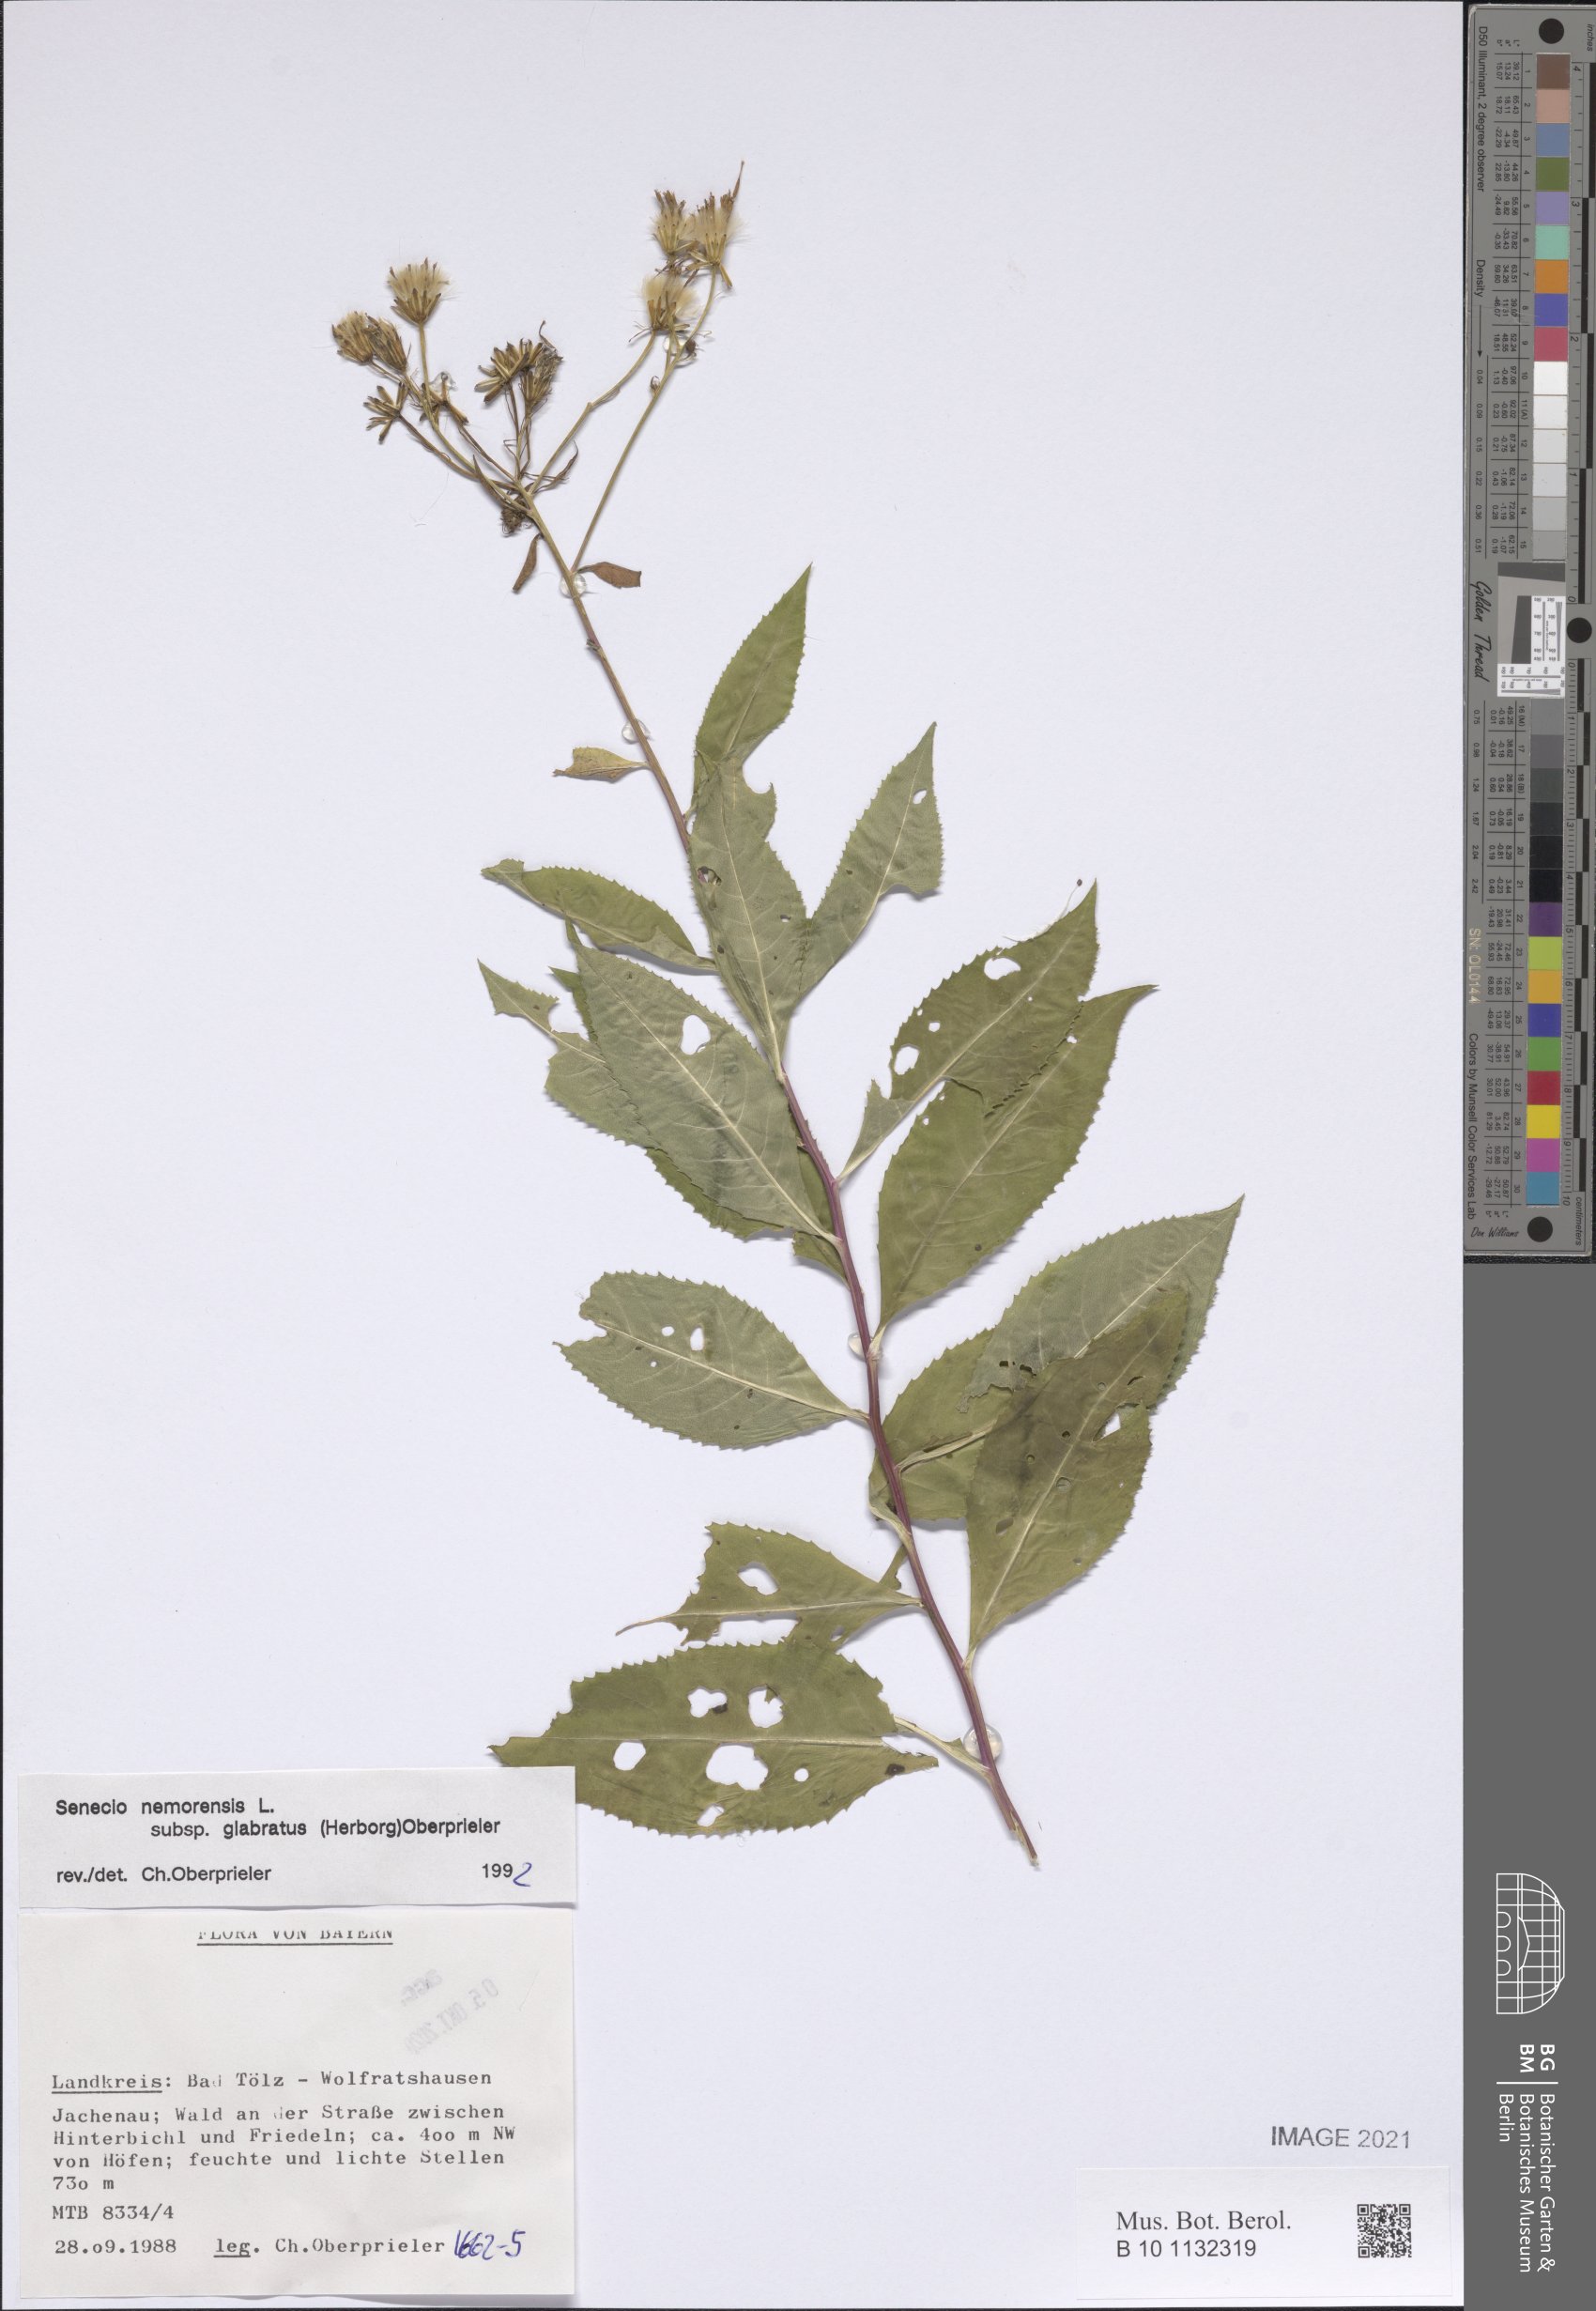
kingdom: Plantae
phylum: Tracheophyta
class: Magnoliopsida
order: Asterales
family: Asteraceae
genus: Senecio
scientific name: Senecio germanicus
